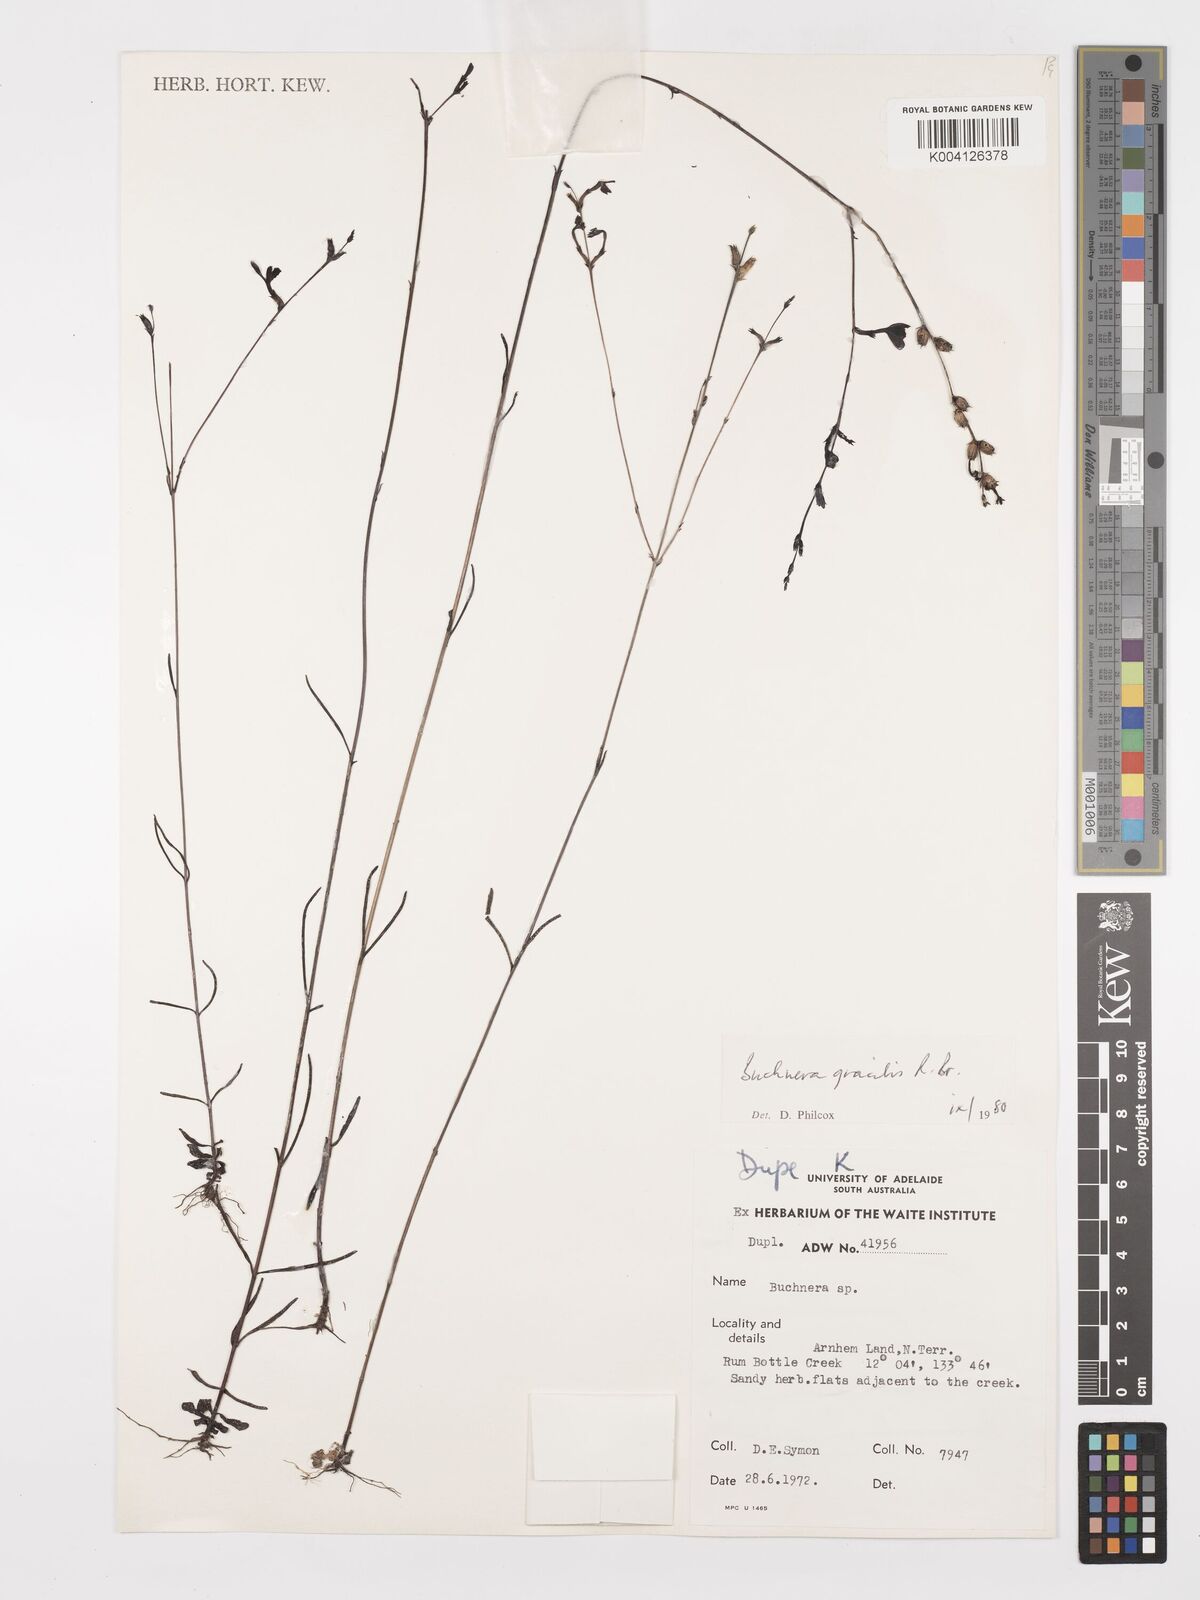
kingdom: Plantae
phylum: Tracheophyta
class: Magnoliopsida
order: Lamiales
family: Orobanchaceae
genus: Buchnera
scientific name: Buchnera gracilis
